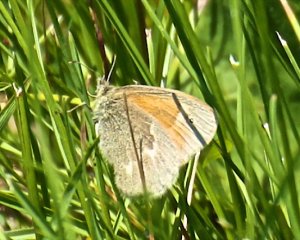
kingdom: Animalia
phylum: Arthropoda
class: Insecta
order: Lepidoptera
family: Nymphalidae
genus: Coenonympha
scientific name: Coenonympha tullia
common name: Large Heath
